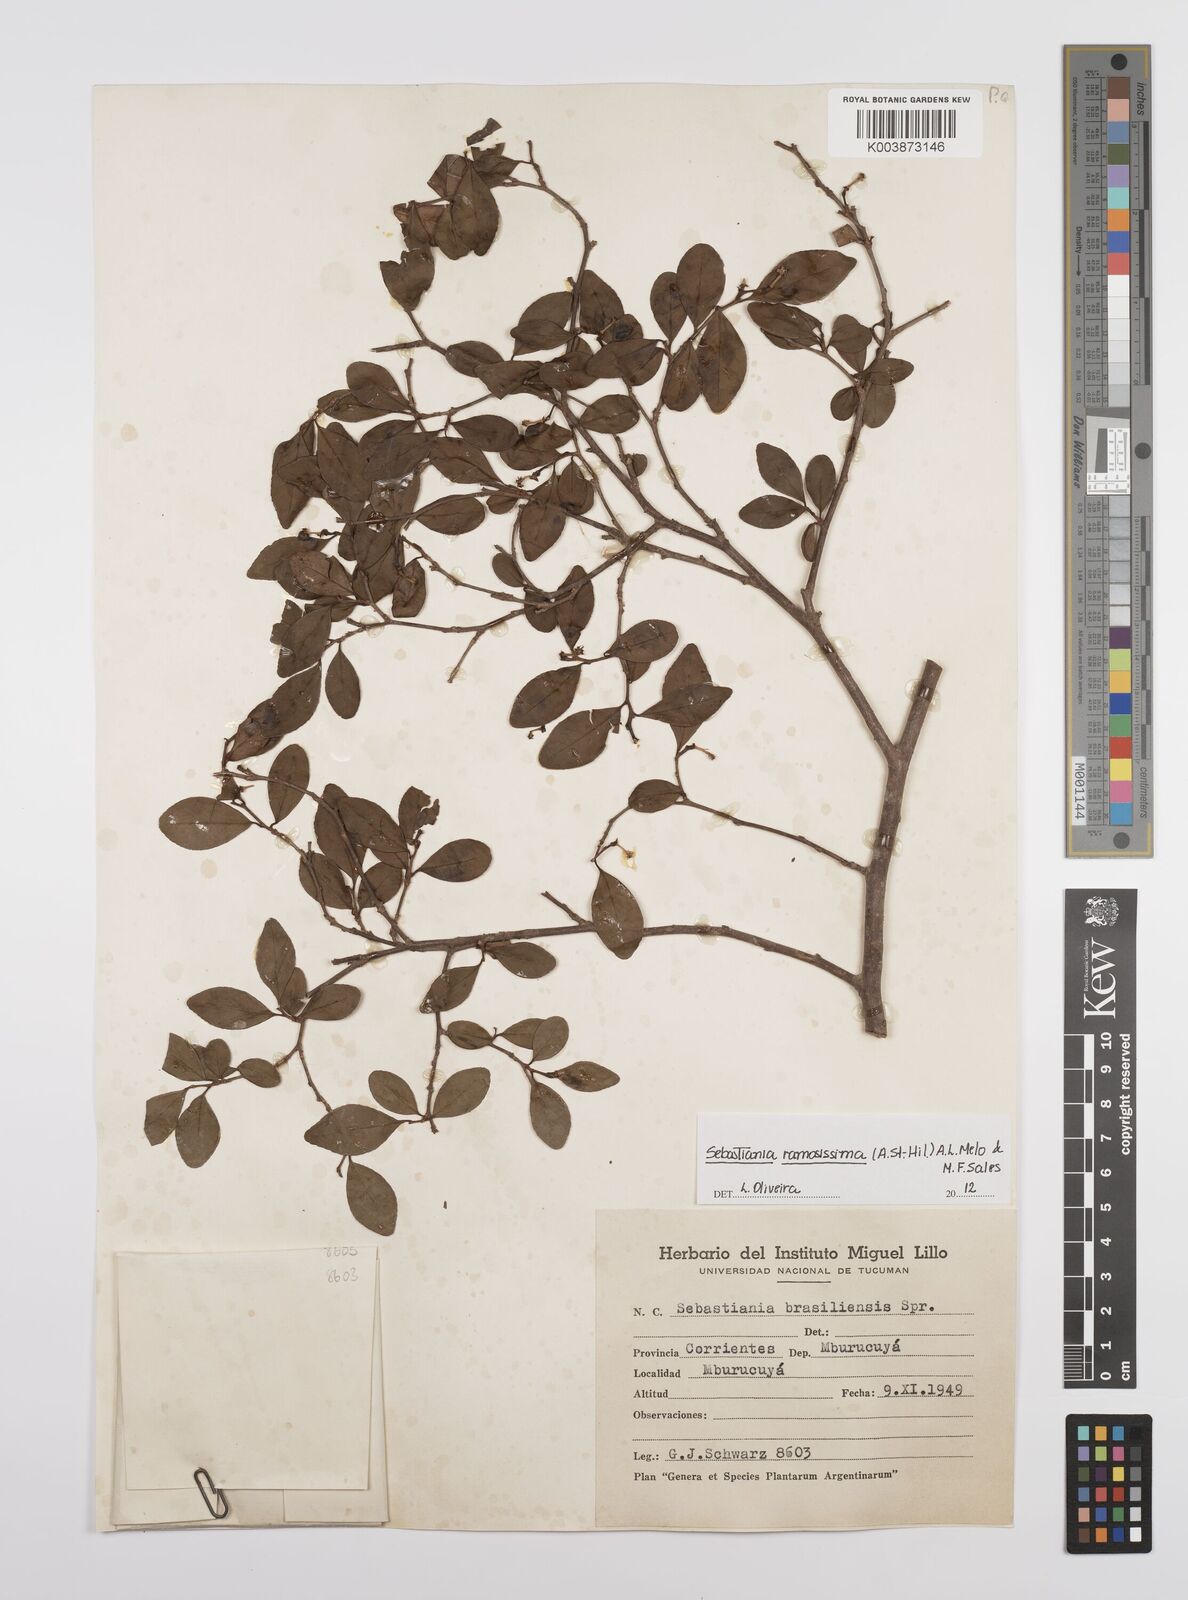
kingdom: Plantae
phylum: Tracheophyta
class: Magnoliopsida
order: Malpighiales
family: Euphorbiaceae
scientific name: Euphorbiaceae
